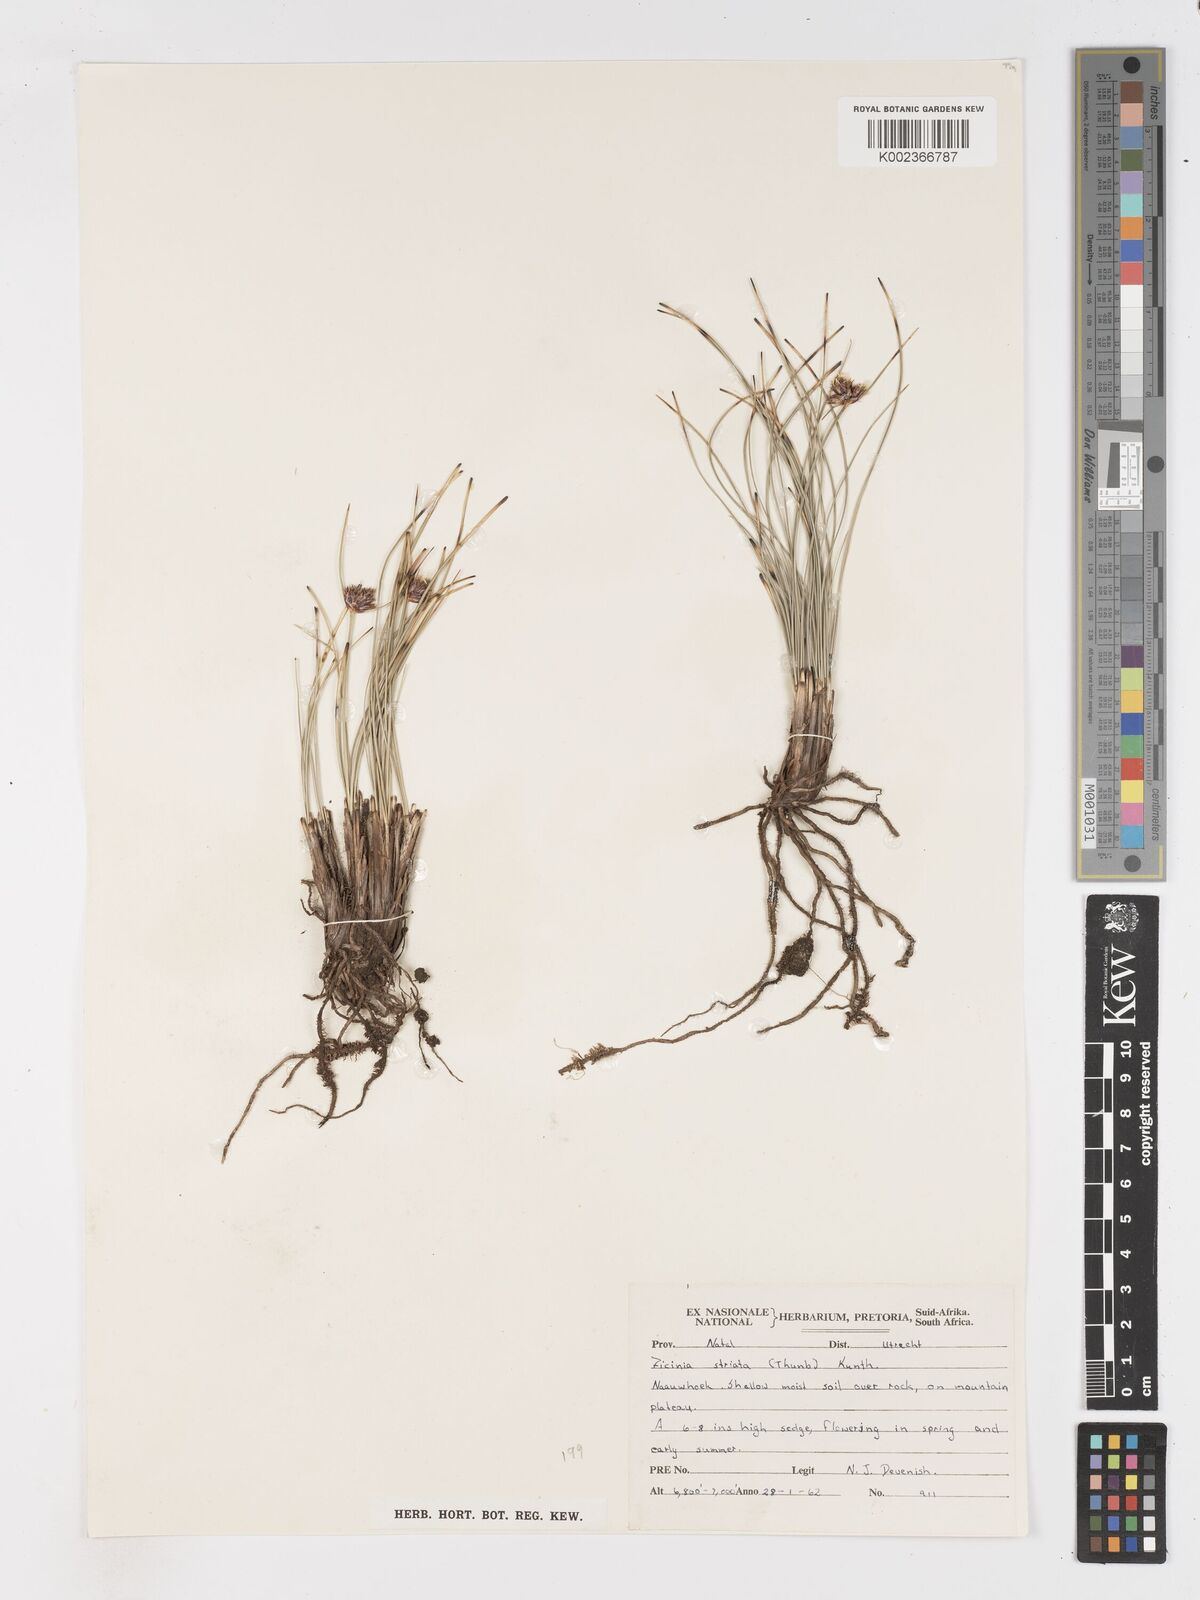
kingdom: Plantae
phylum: Tracheophyta
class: Liliopsida
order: Poales
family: Cyperaceae
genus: Dracoscirpoides
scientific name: Dracoscirpoides falsa
